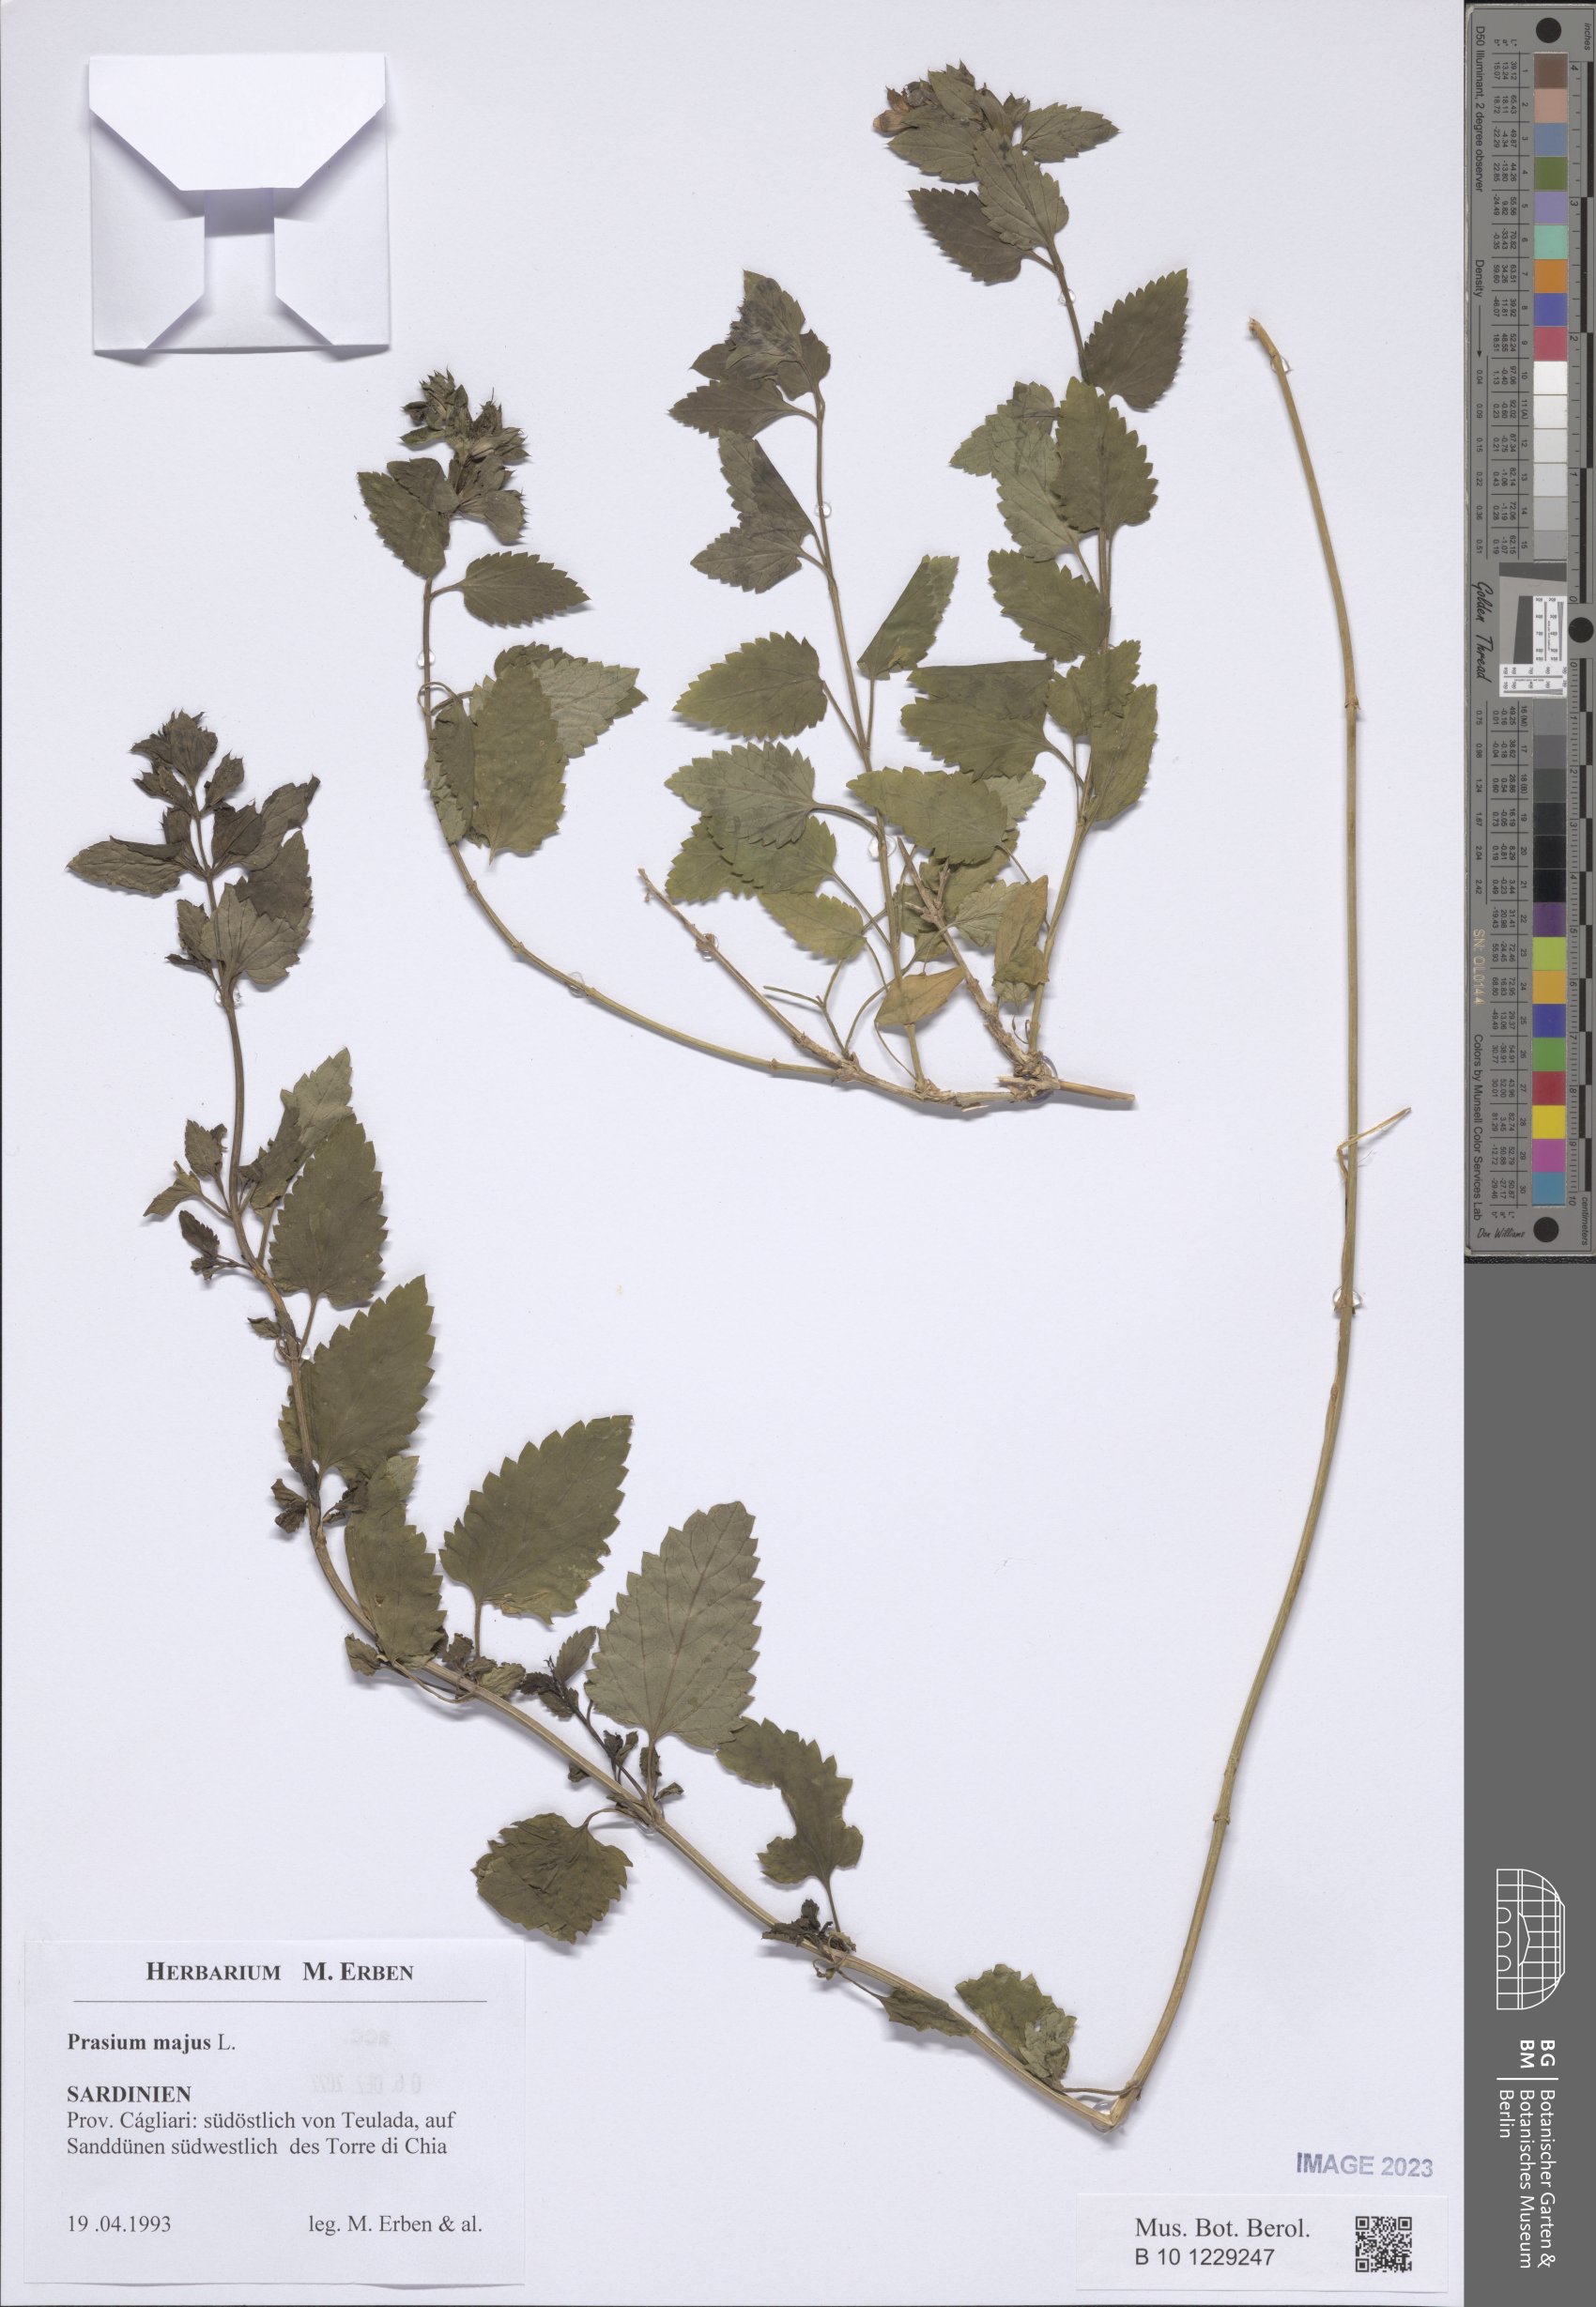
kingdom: Plantae
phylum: Tracheophyta
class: Magnoliopsida
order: Lamiales
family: Lamiaceae
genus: Prasium
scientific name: Prasium majus
